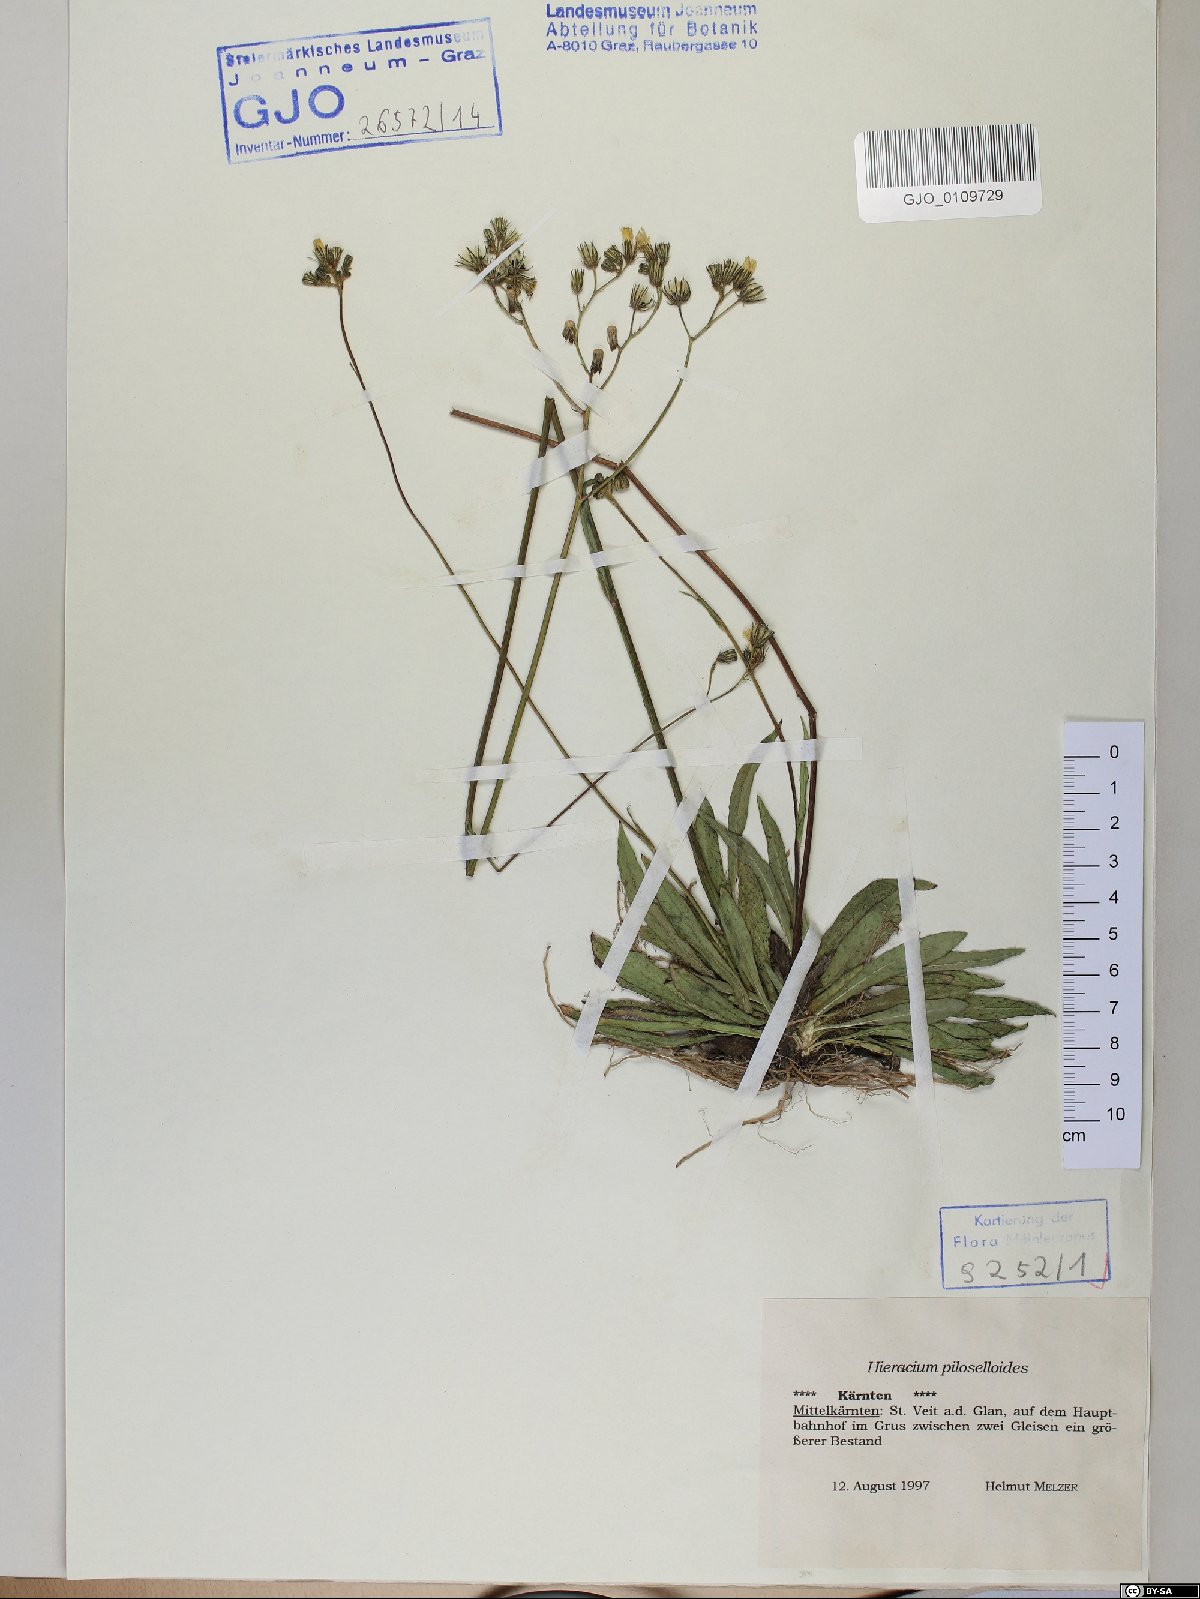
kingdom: Plantae
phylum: Tracheophyta
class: Magnoliopsida
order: Asterales
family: Asteraceae
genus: Pilosella
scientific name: Pilosella piloselloides
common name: Glaucous king-devil
